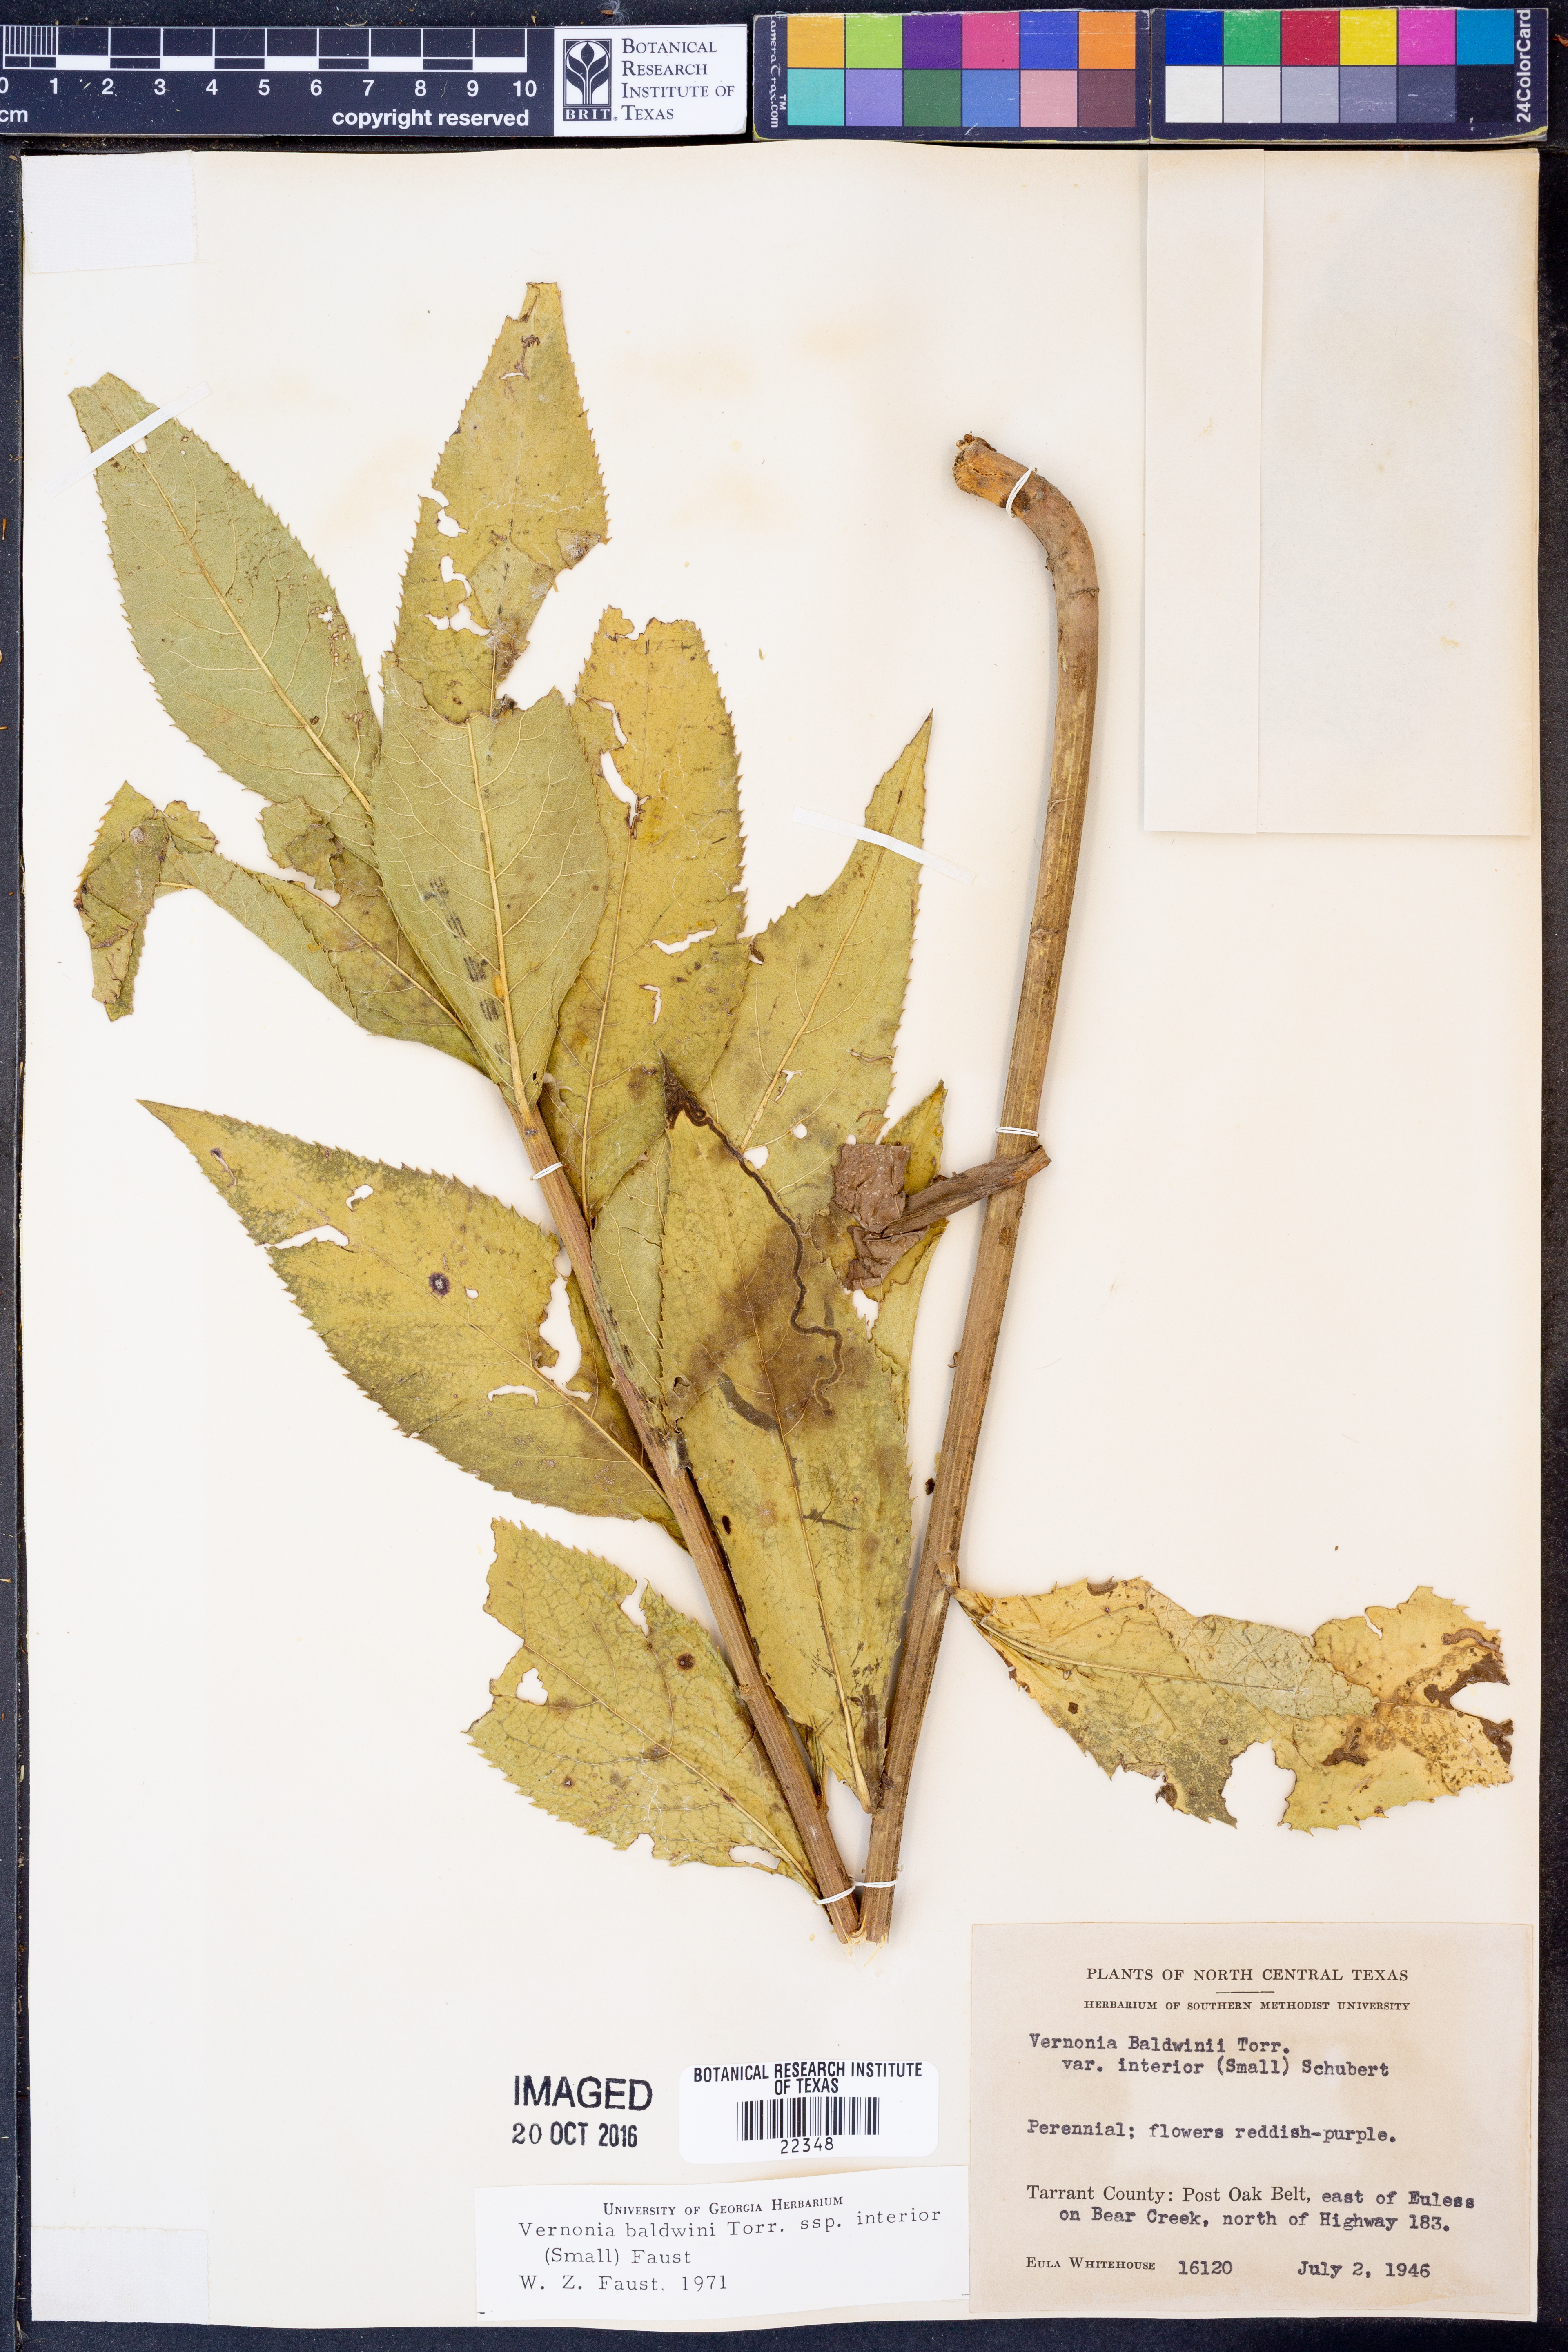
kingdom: Plantae
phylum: Tracheophyta
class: Magnoliopsida
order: Asterales
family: Asteraceae
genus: Vernonia
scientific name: Vernonia baldwinii
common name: Western ironweed
